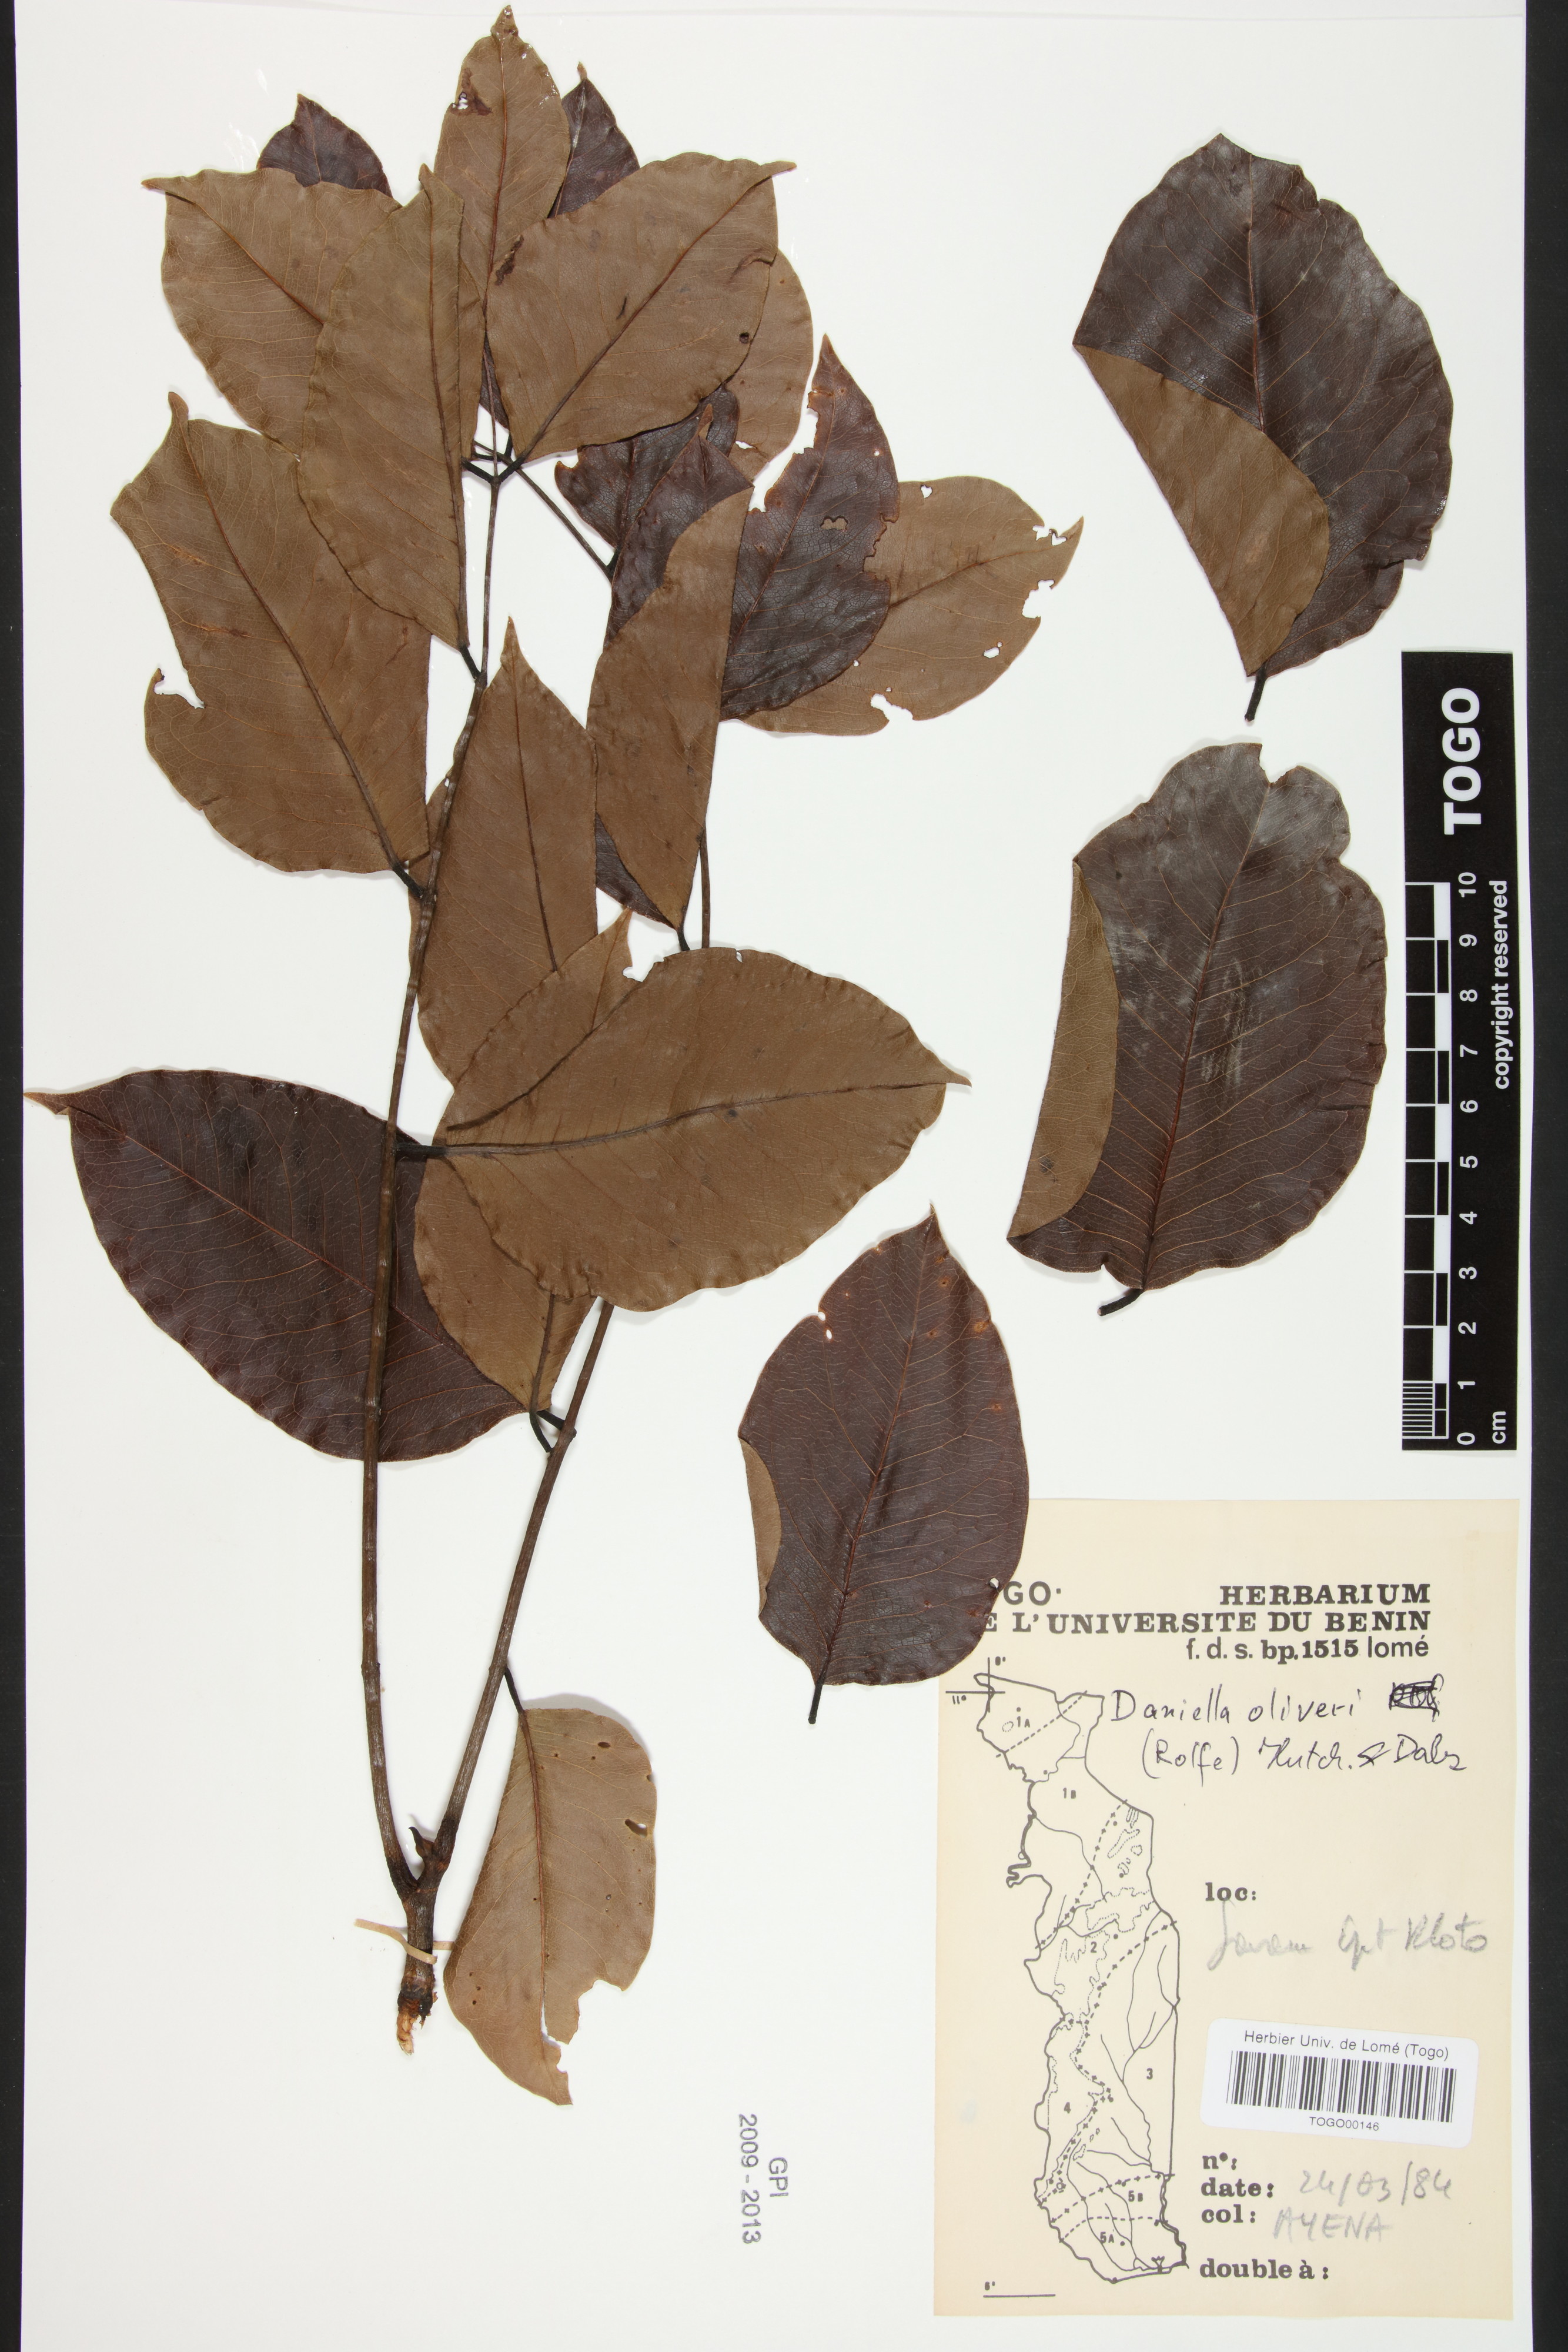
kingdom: Plantae
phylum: Tracheophyta
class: Magnoliopsida
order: Fabales
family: Fabaceae
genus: Daniellia
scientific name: Daniellia oliveri
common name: African copaiba balsamtree
